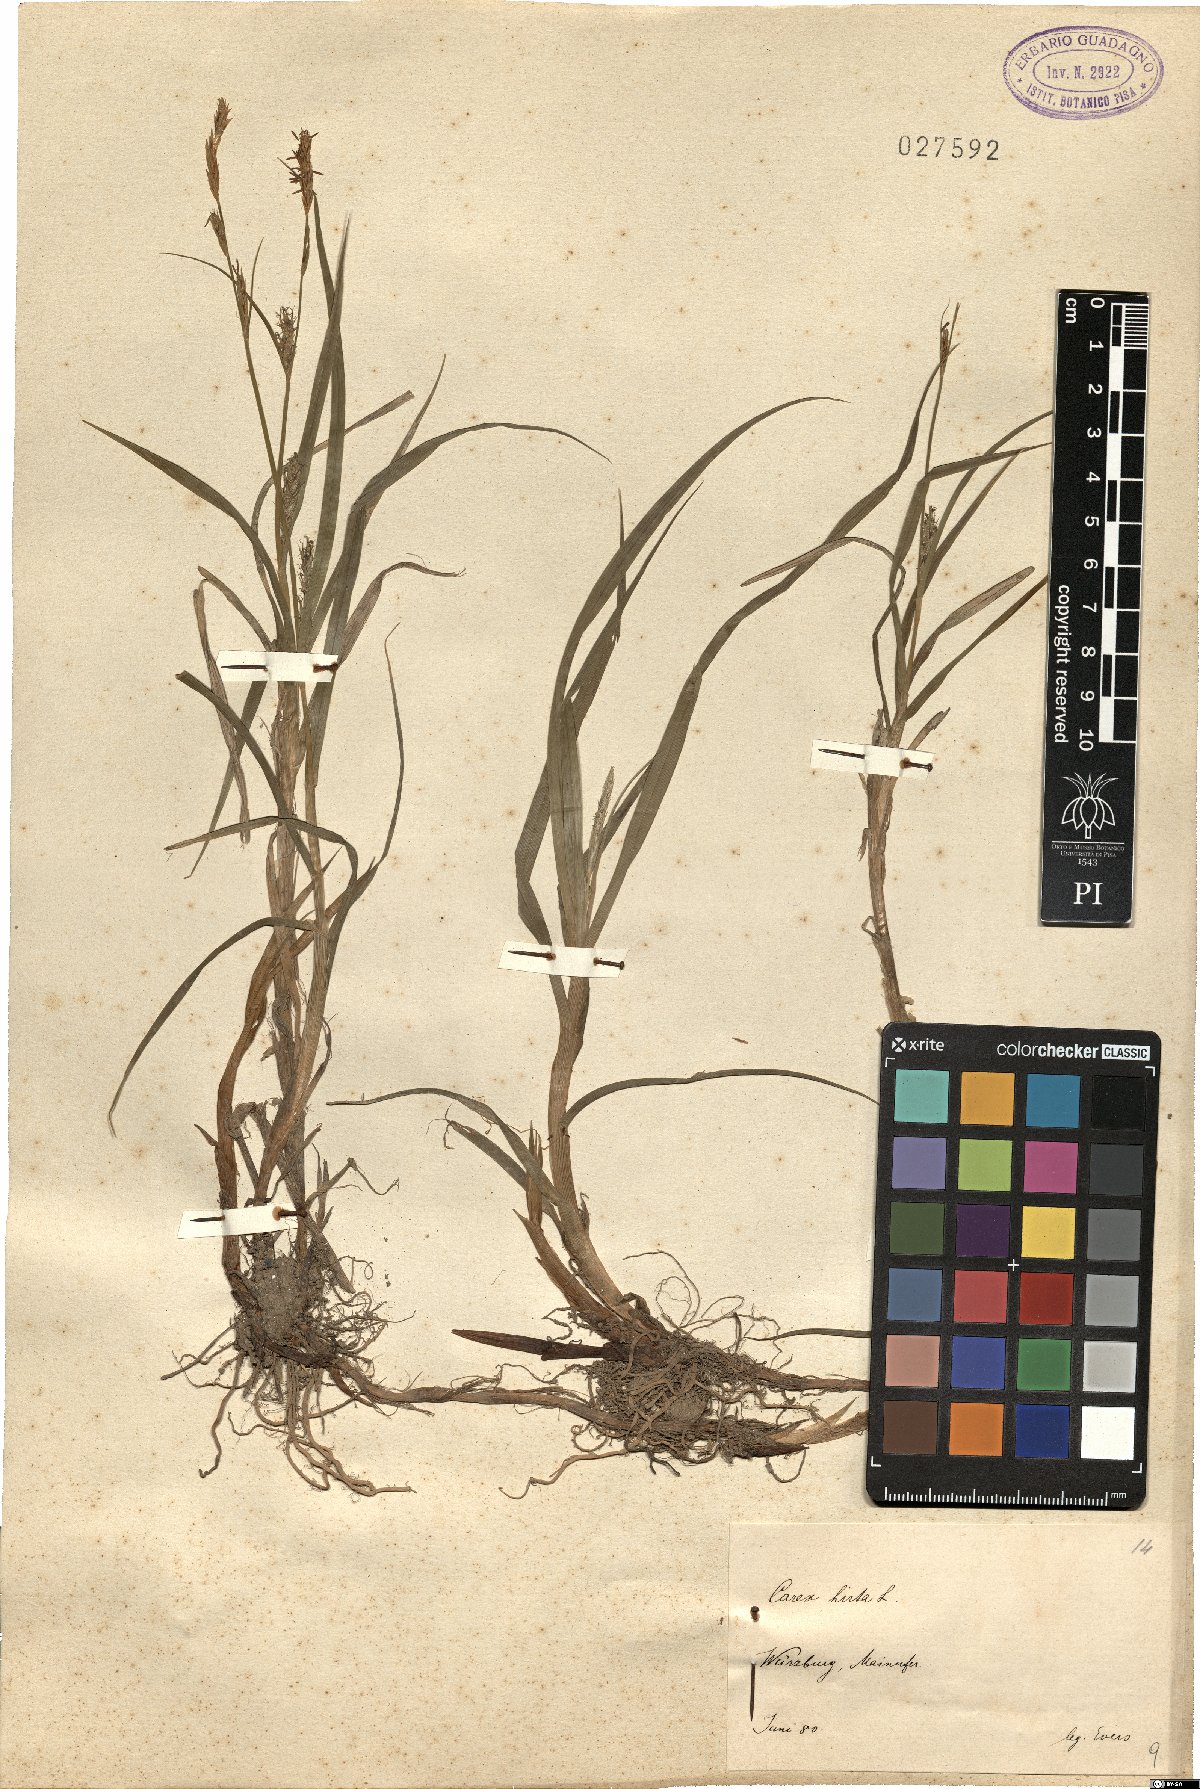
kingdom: Plantae
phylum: Tracheophyta
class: Liliopsida
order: Poales
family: Cyperaceae
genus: Carex
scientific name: Carex hirta
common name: Hairy sedge
